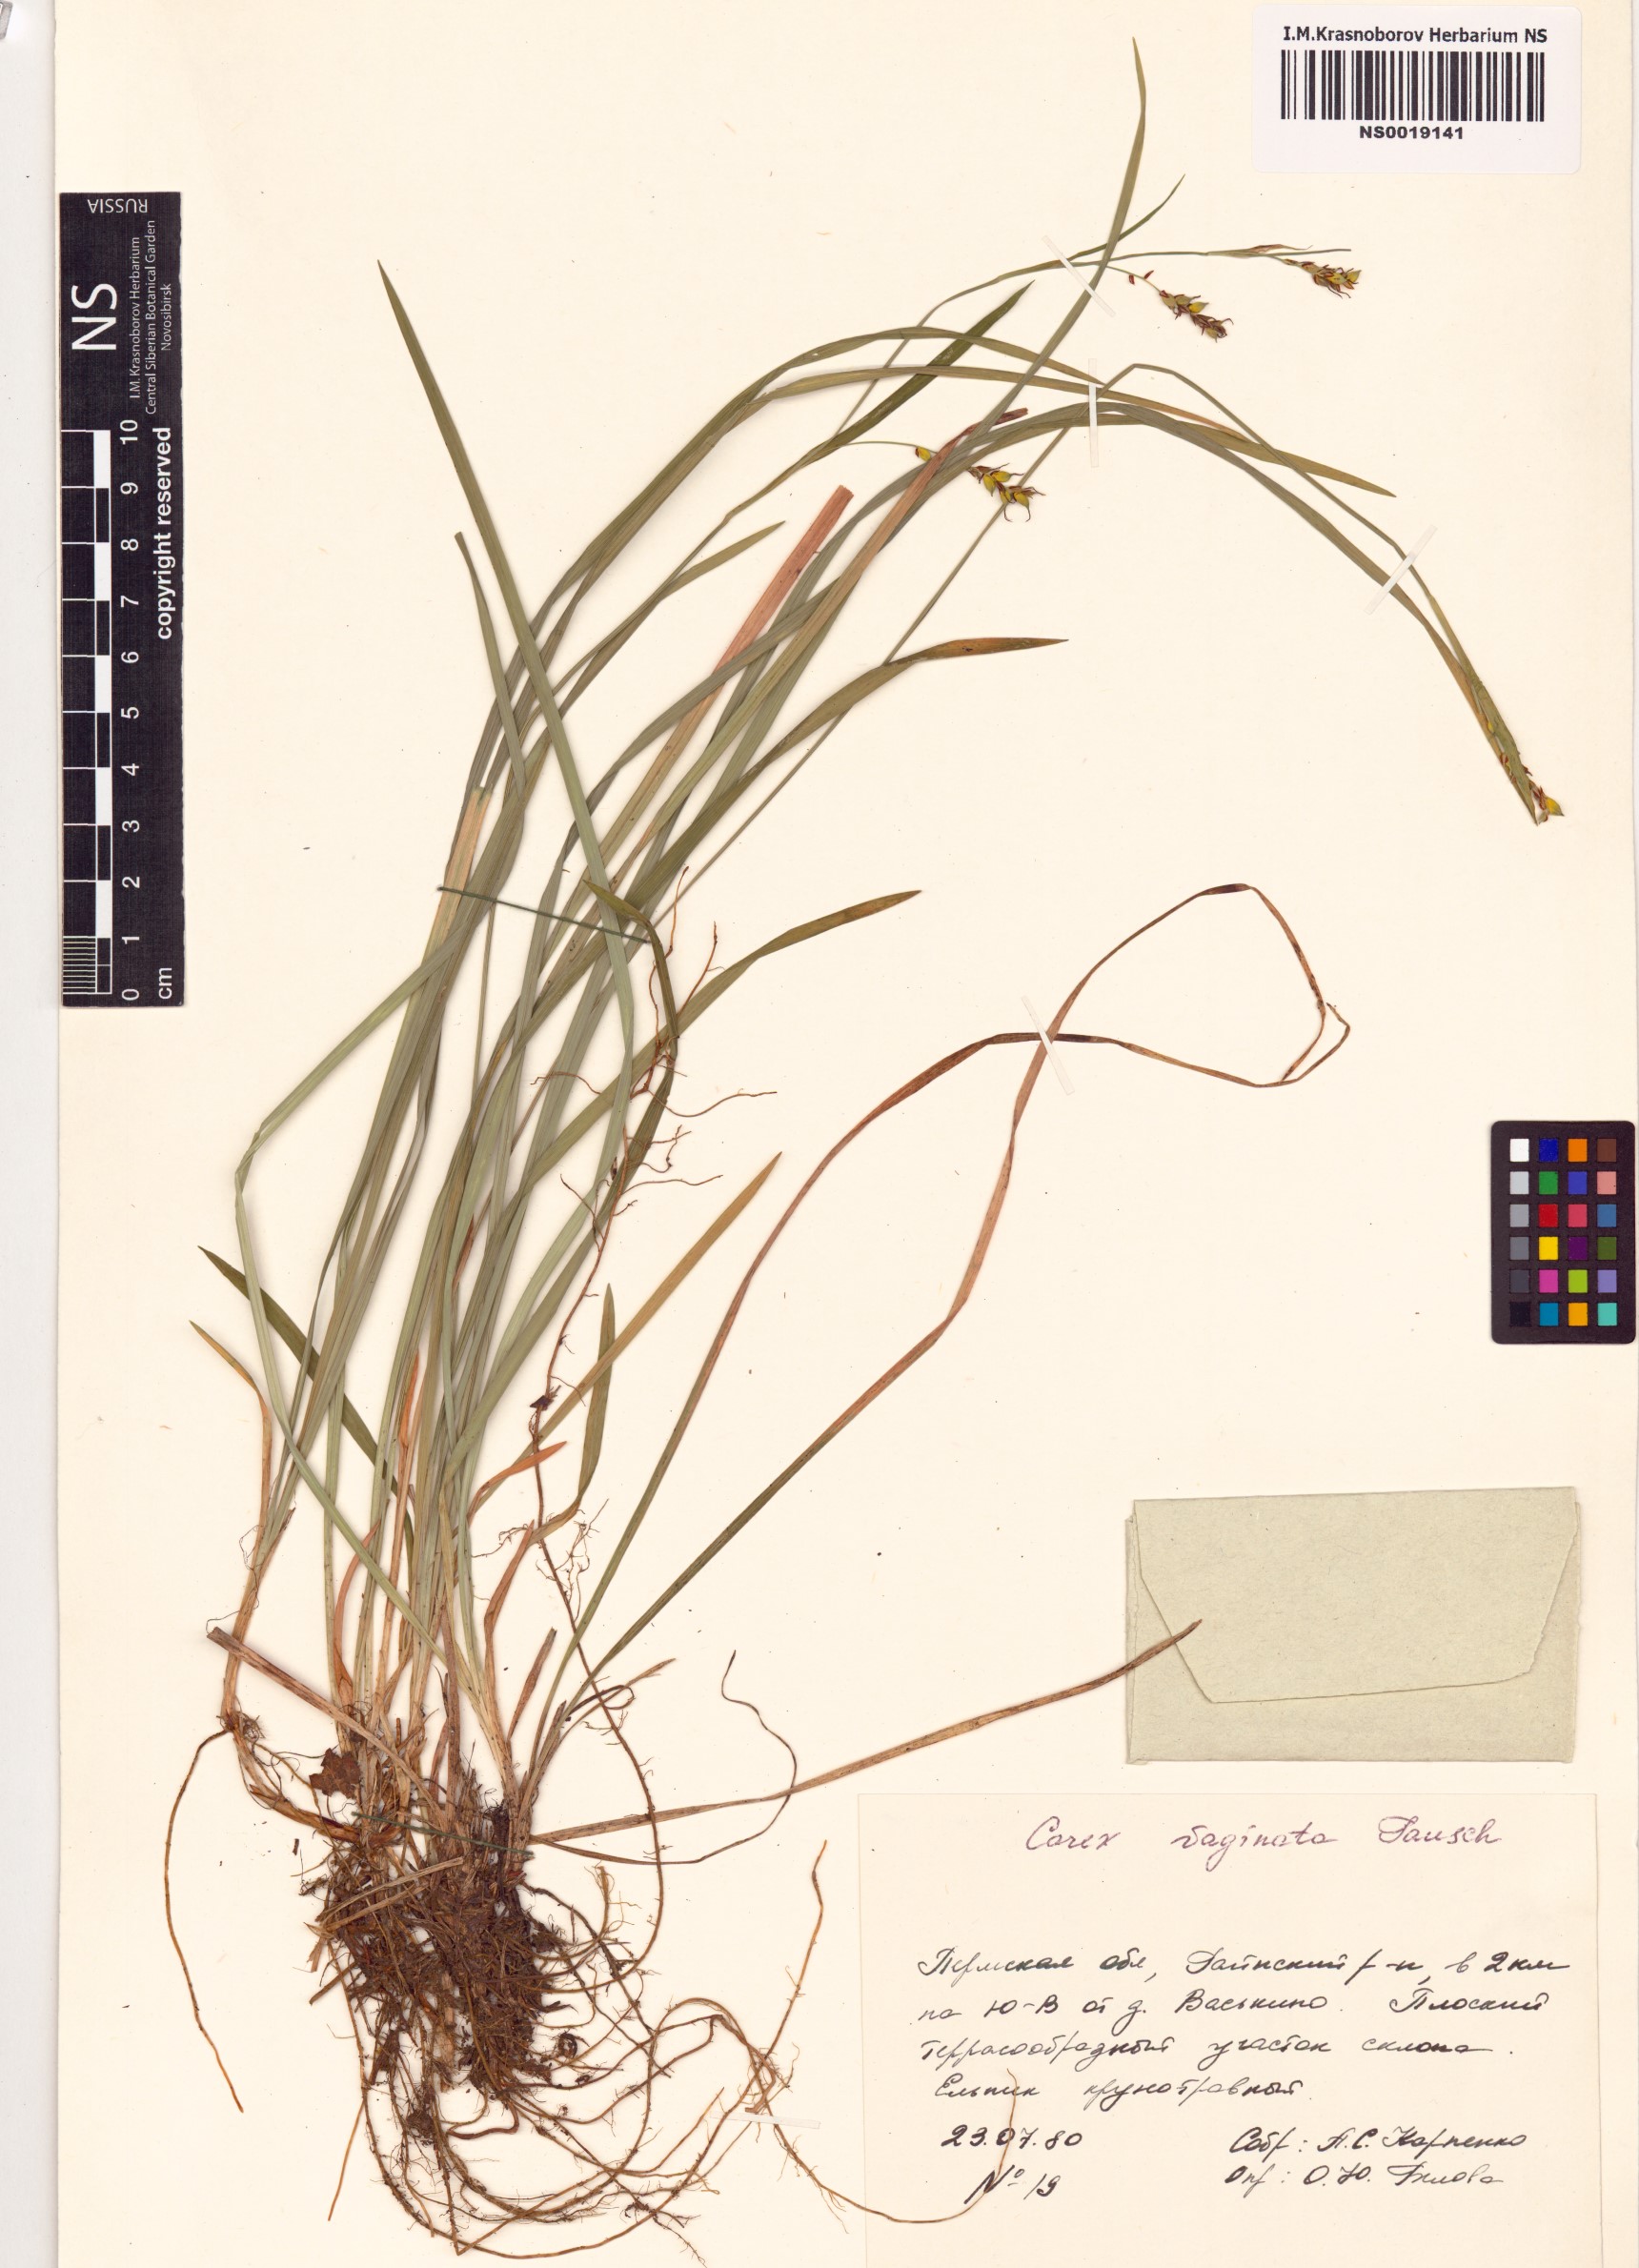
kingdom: Plantae
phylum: Tracheophyta
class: Liliopsida
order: Poales
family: Cyperaceae
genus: Carex
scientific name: Carex vaginata
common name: Sheathed sedge
